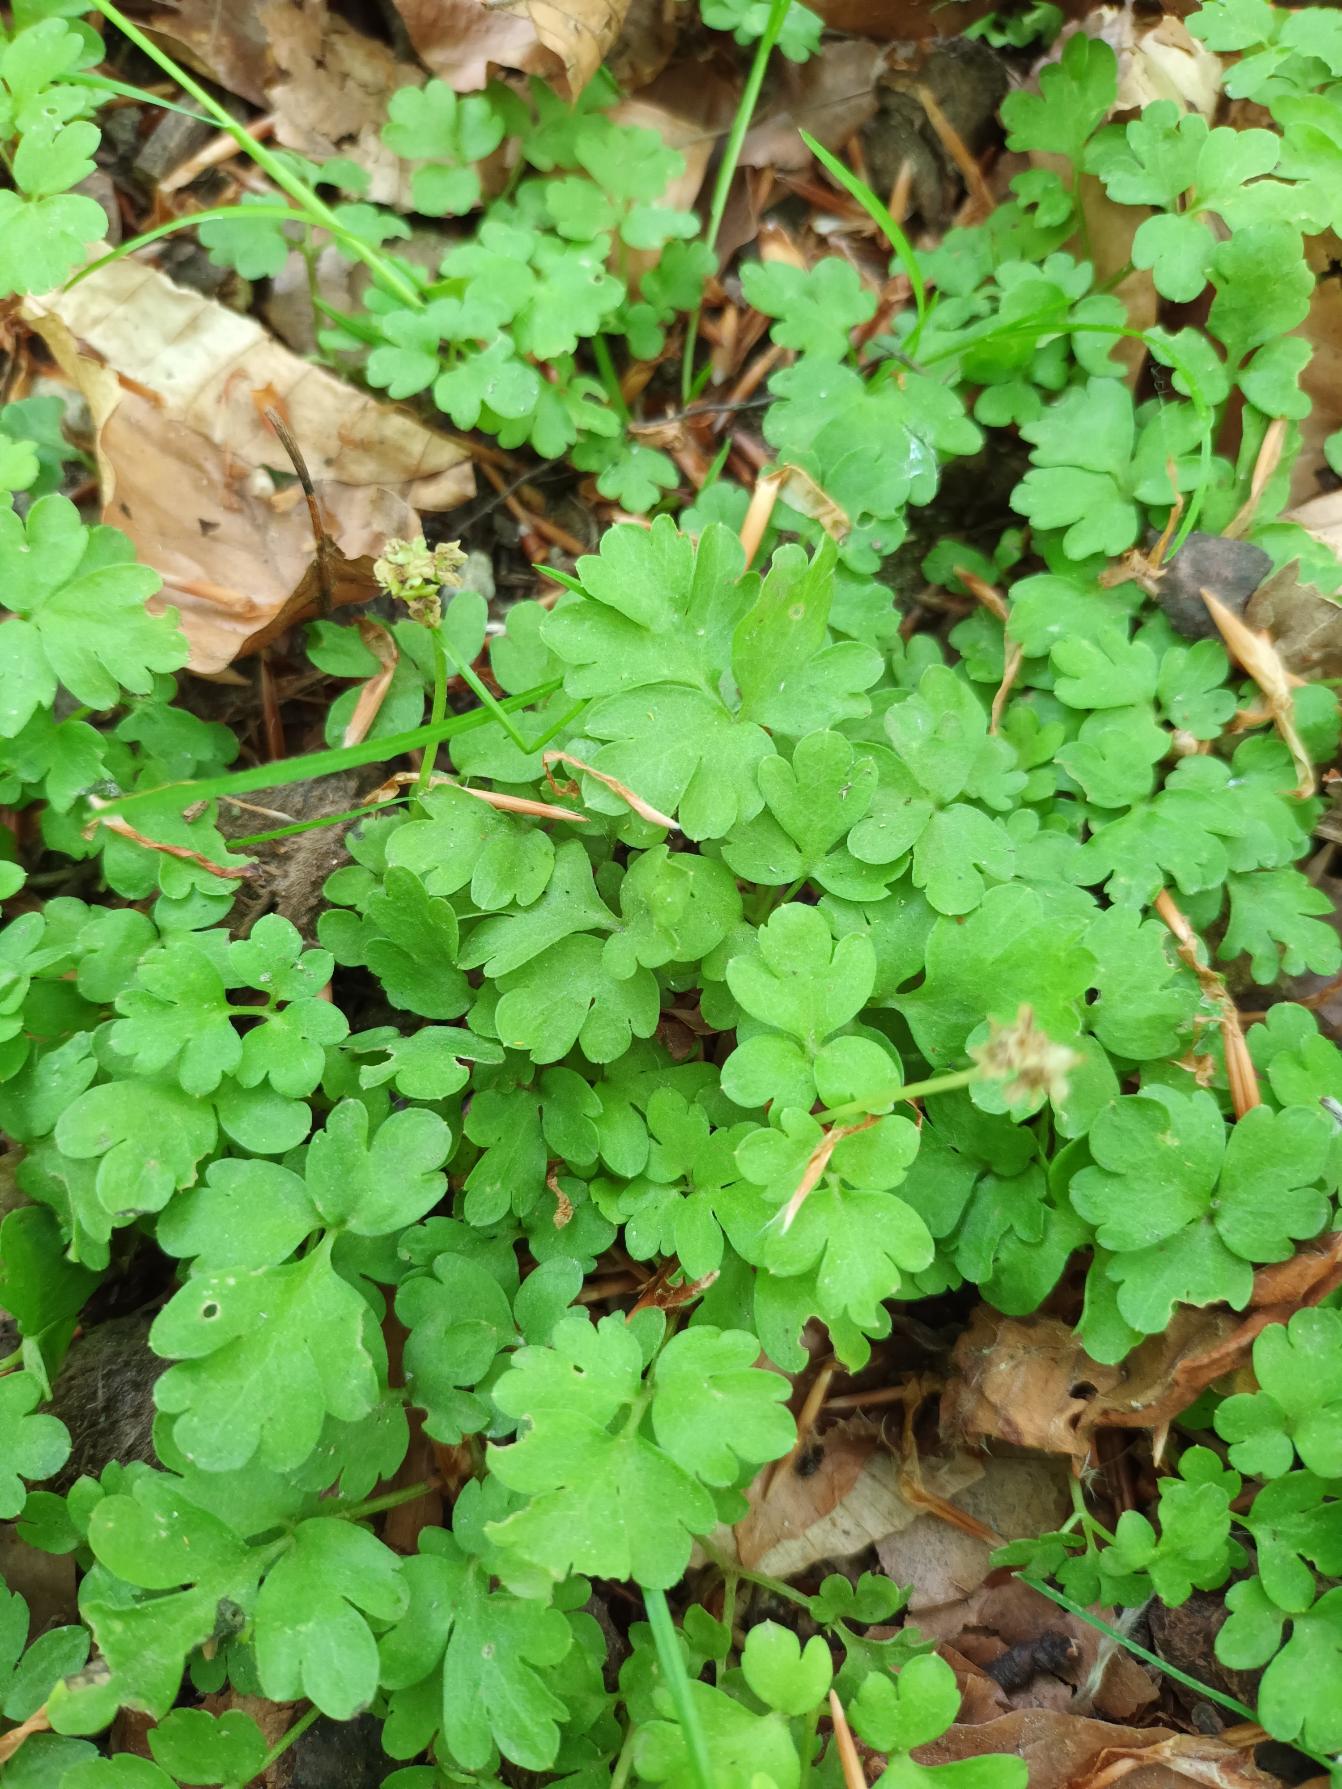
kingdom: Plantae
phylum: Tracheophyta
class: Magnoliopsida
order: Dipsacales
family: Viburnaceae
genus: Adoxa
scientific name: Adoxa moschatellina
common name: Desmerurt
